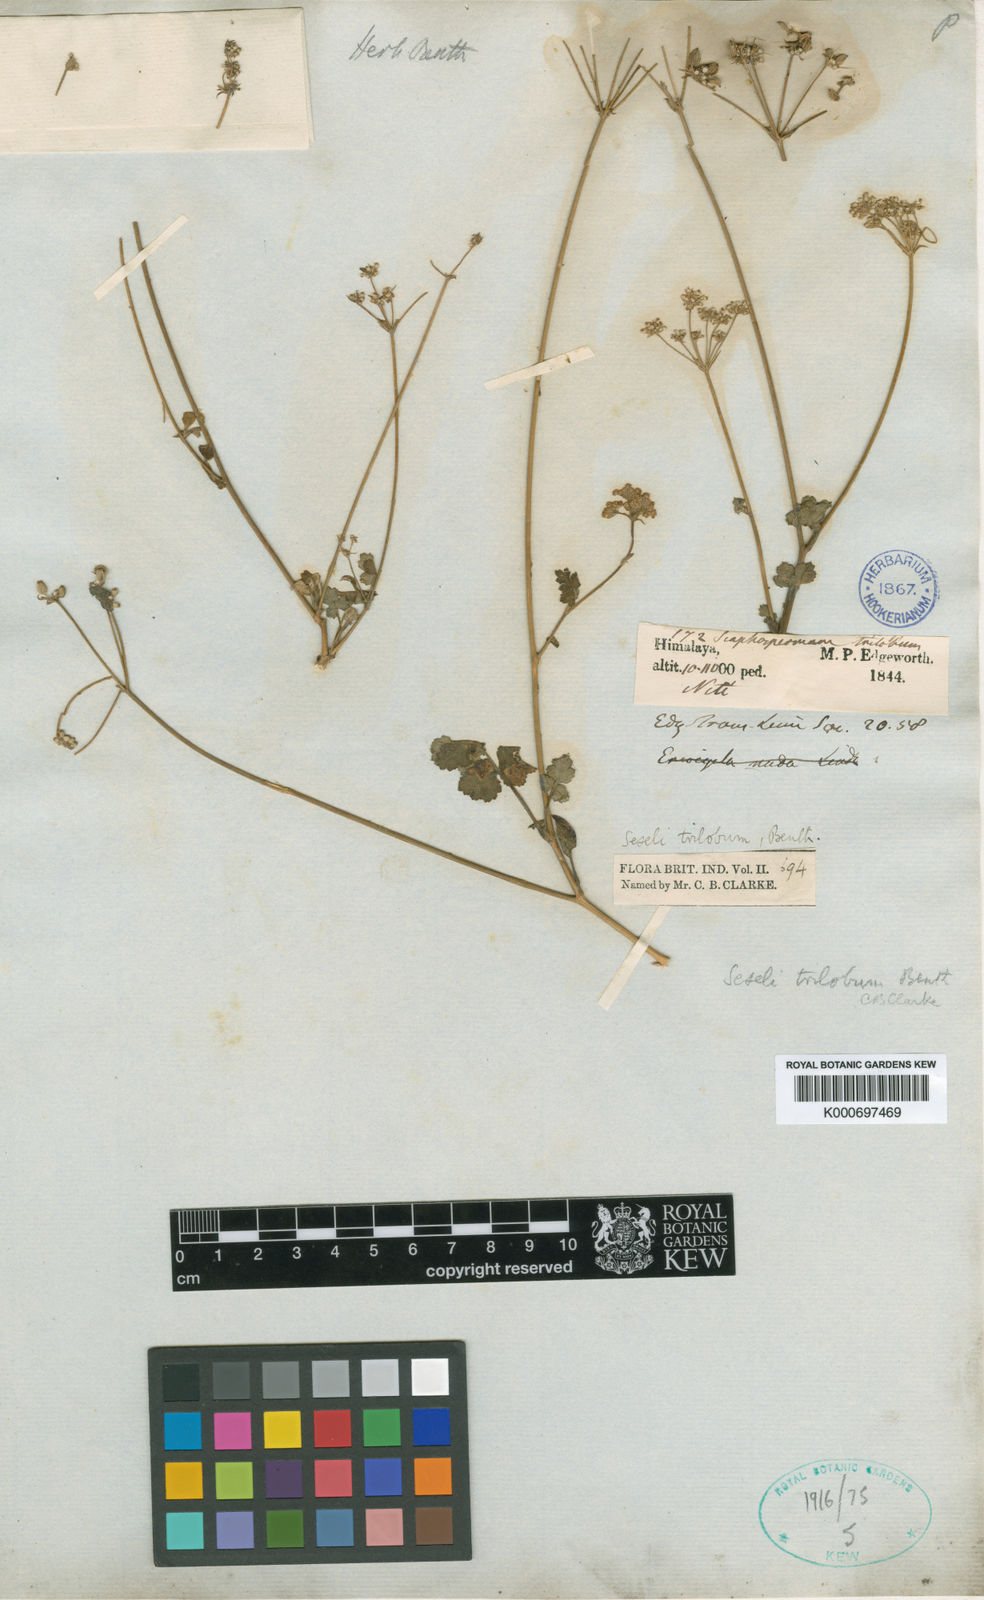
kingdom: Plantae
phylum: Tracheophyta
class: Magnoliopsida
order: Apiales
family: Apiaceae
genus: Seseli
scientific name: Seseli nudum
